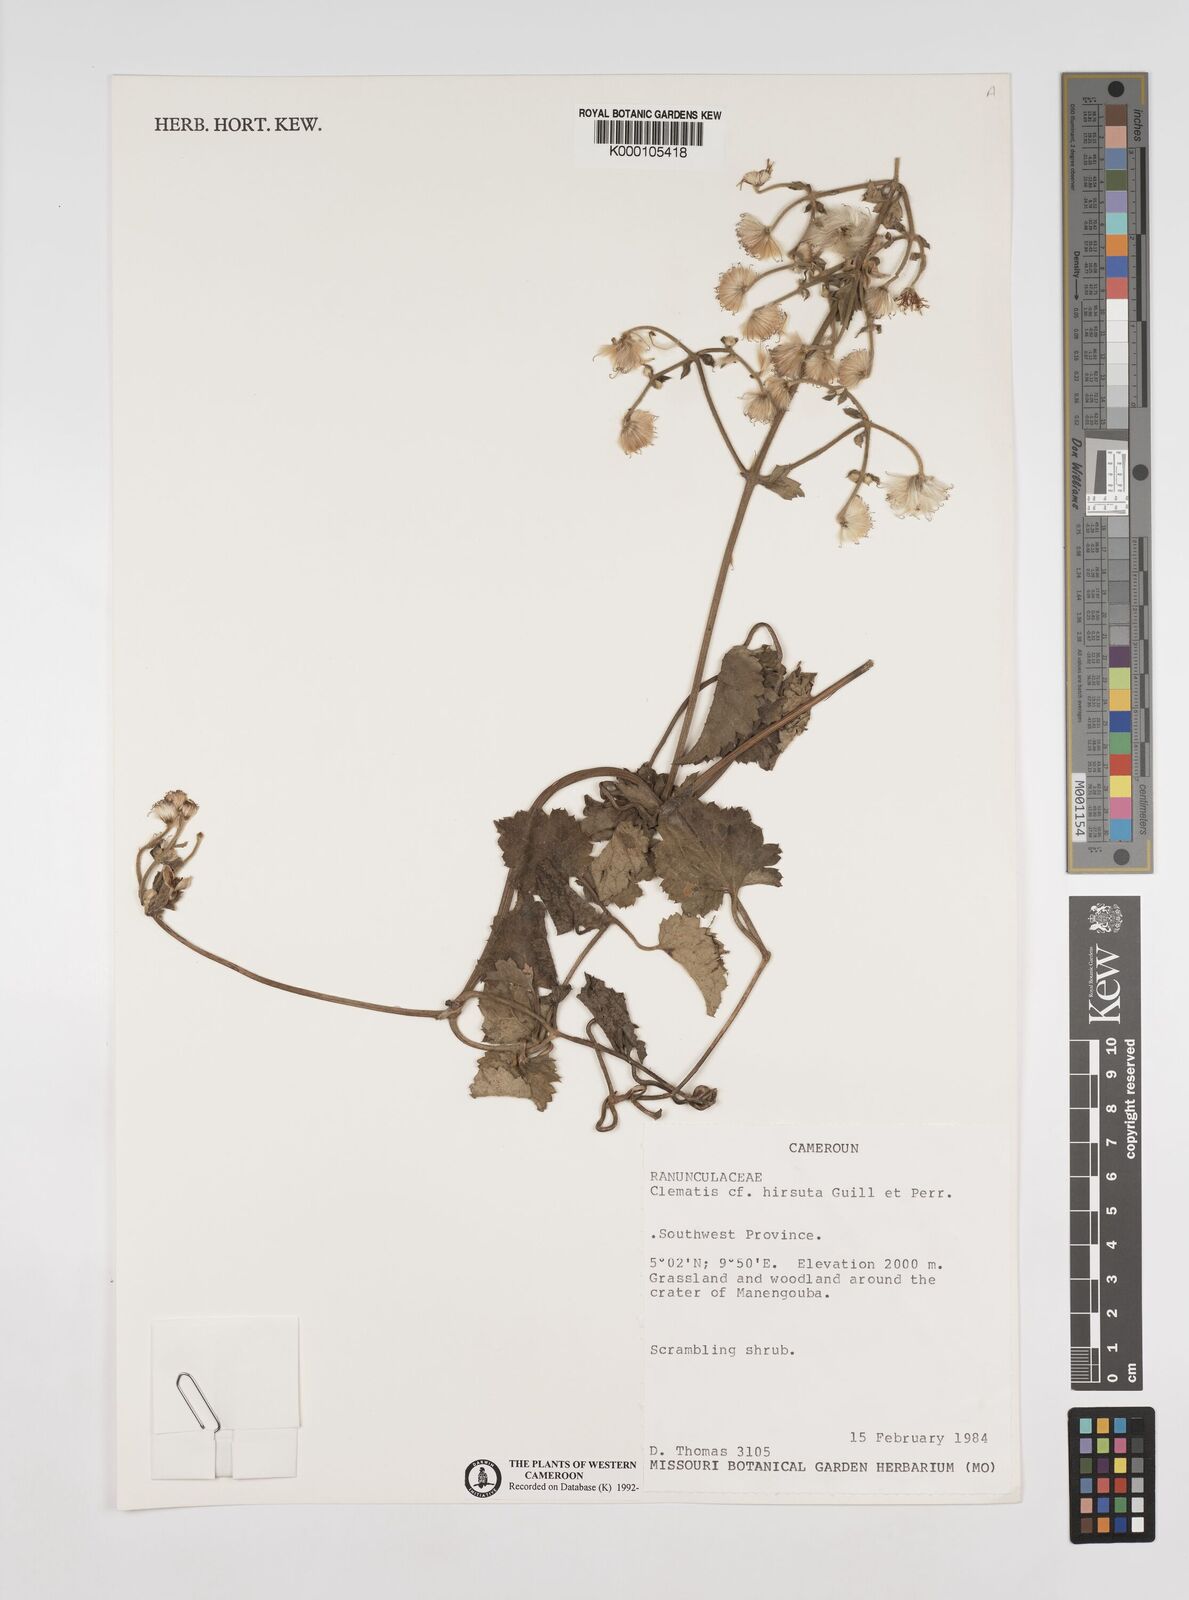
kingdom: Plantae
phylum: Tracheophyta
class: Magnoliopsida
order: Ranunculales
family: Ranunculaceae
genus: Clematis
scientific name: Clematis hirsuta
